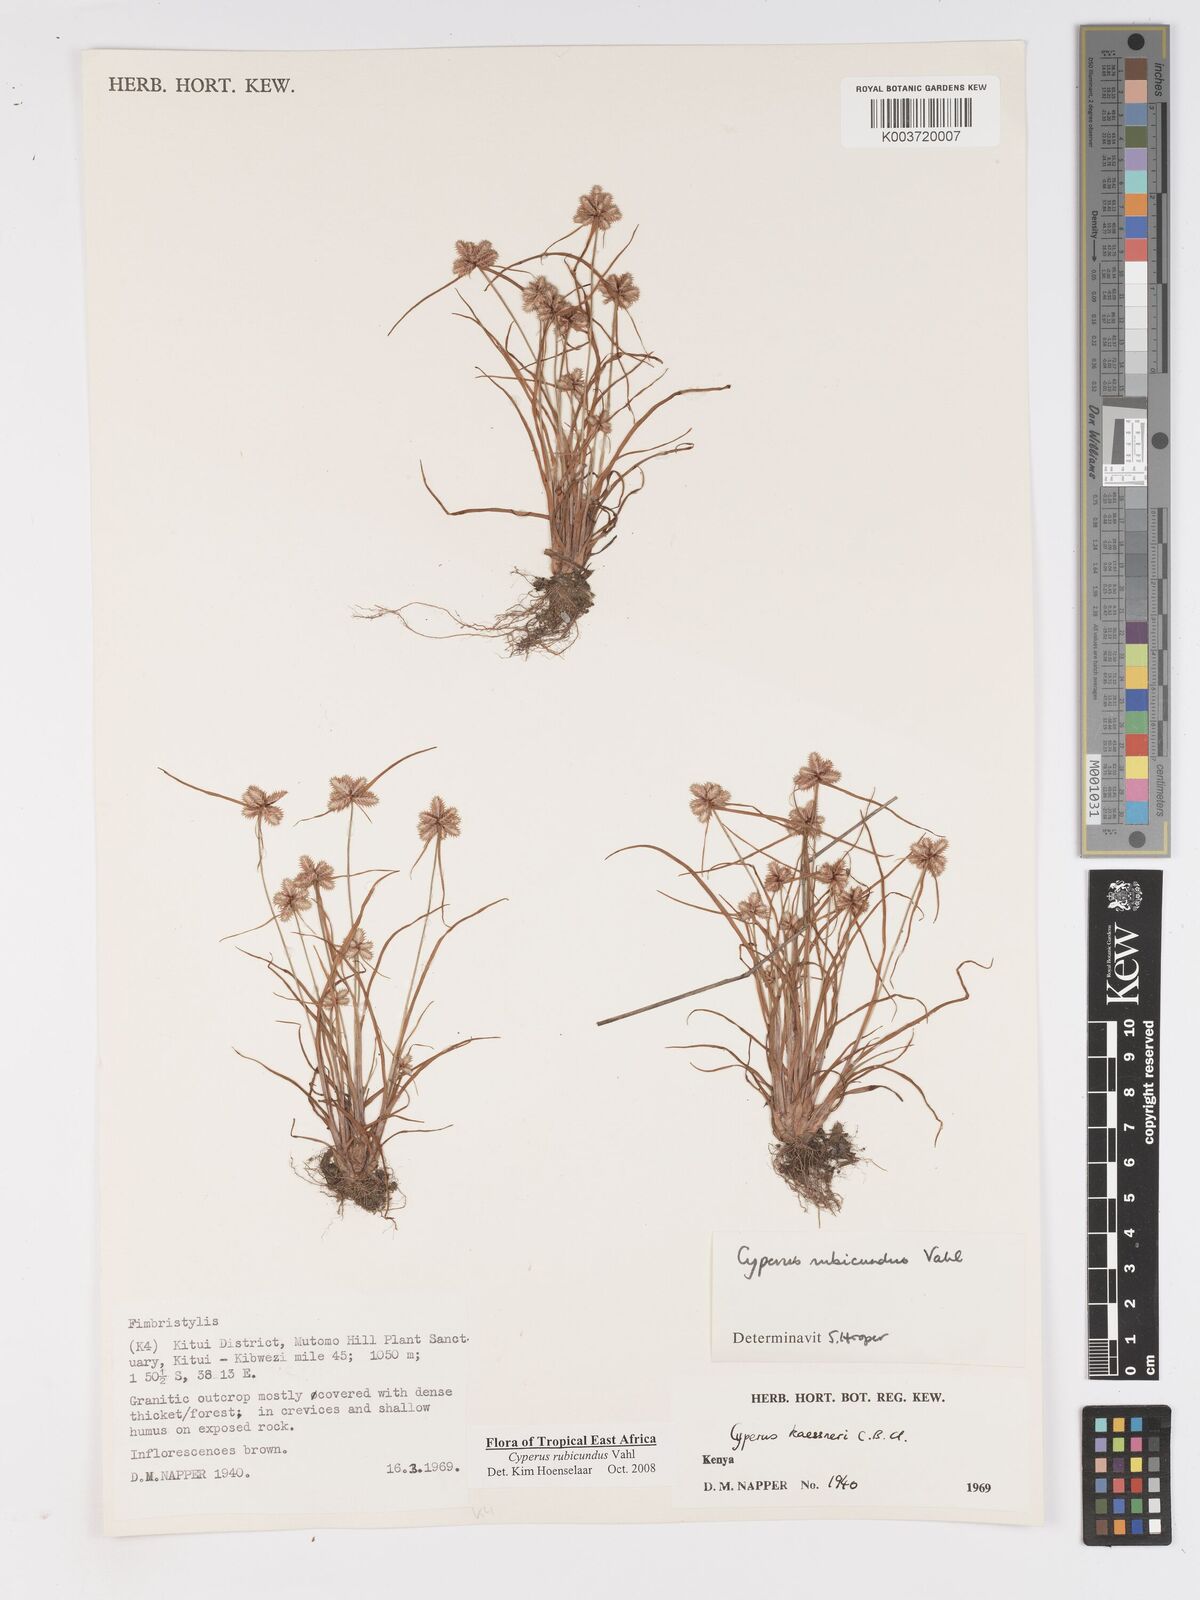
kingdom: Plantae
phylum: Tracheophyta
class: Liliopsida
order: Poales
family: Cyperaceae
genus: Cyperus
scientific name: Cyperus rubicundus
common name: Coco-grass
